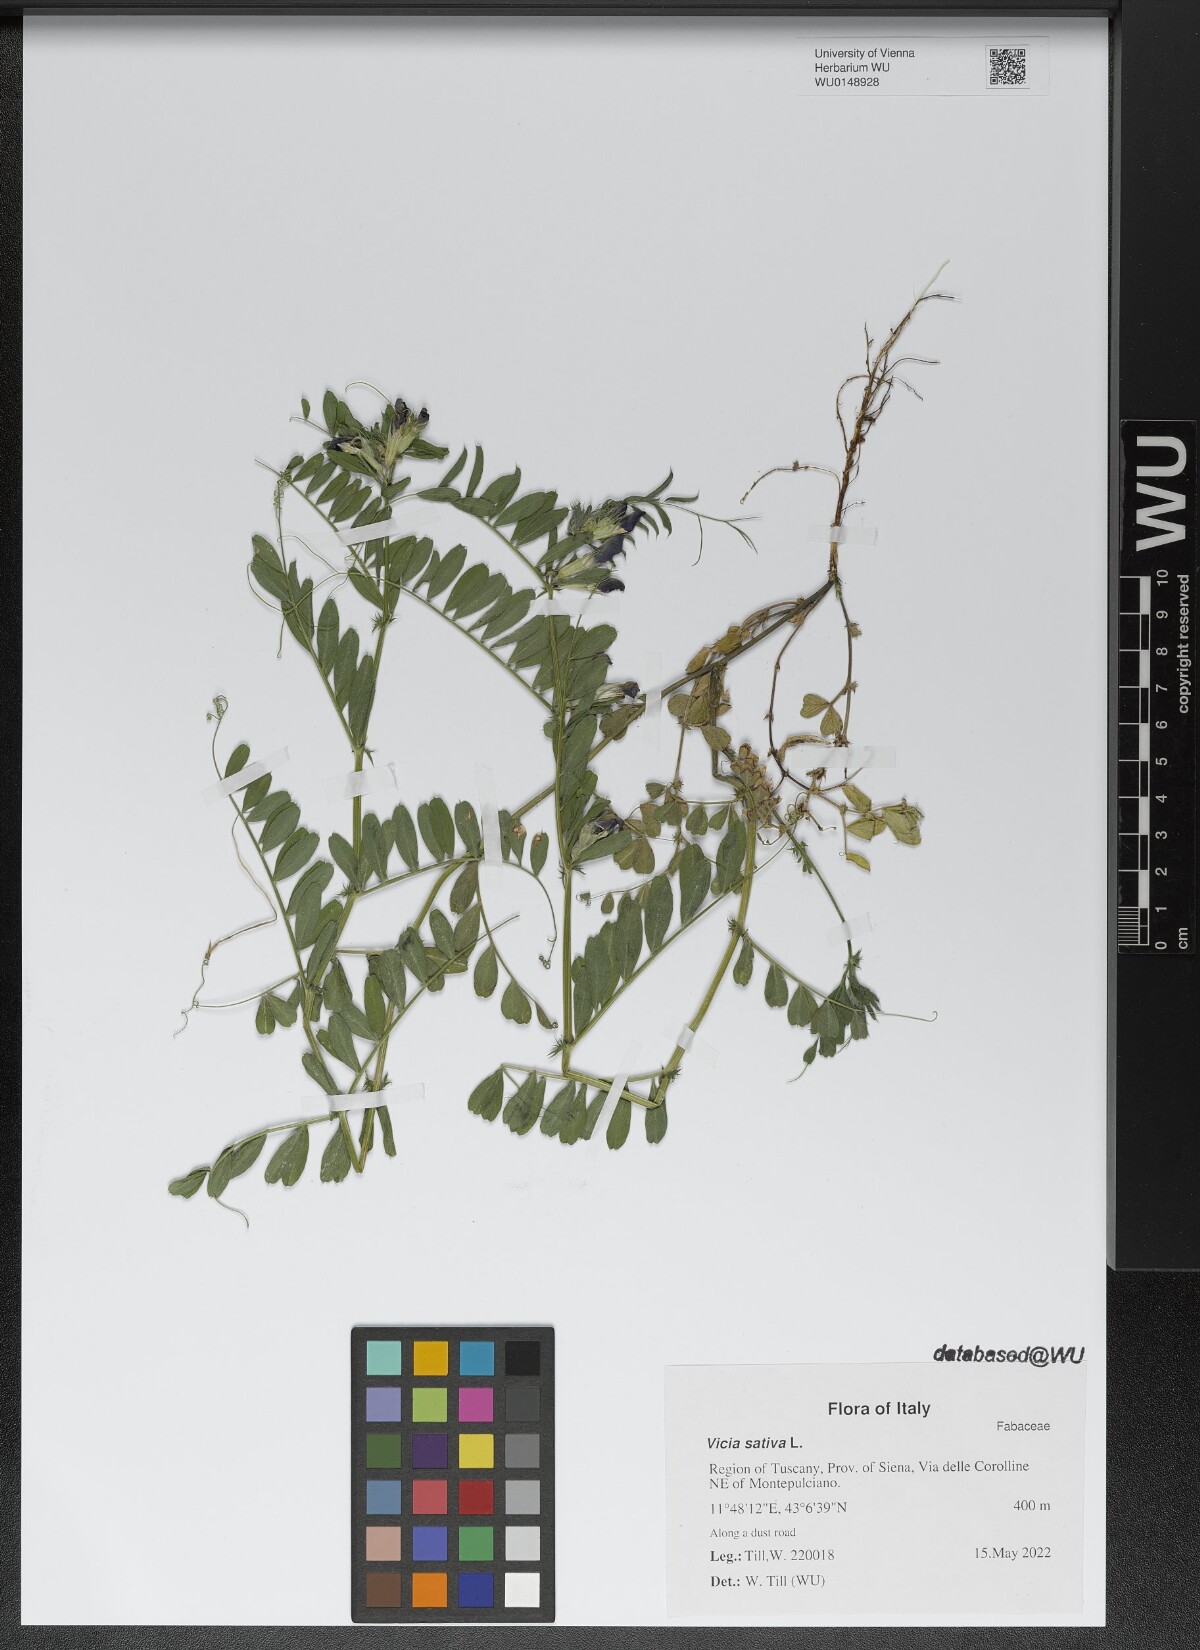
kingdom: Plantae
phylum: Tracheophyta
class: Magnoliopsida
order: Fabales
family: Fabaceae
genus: Vicia
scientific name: Vicia sativa
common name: Garden vetch
